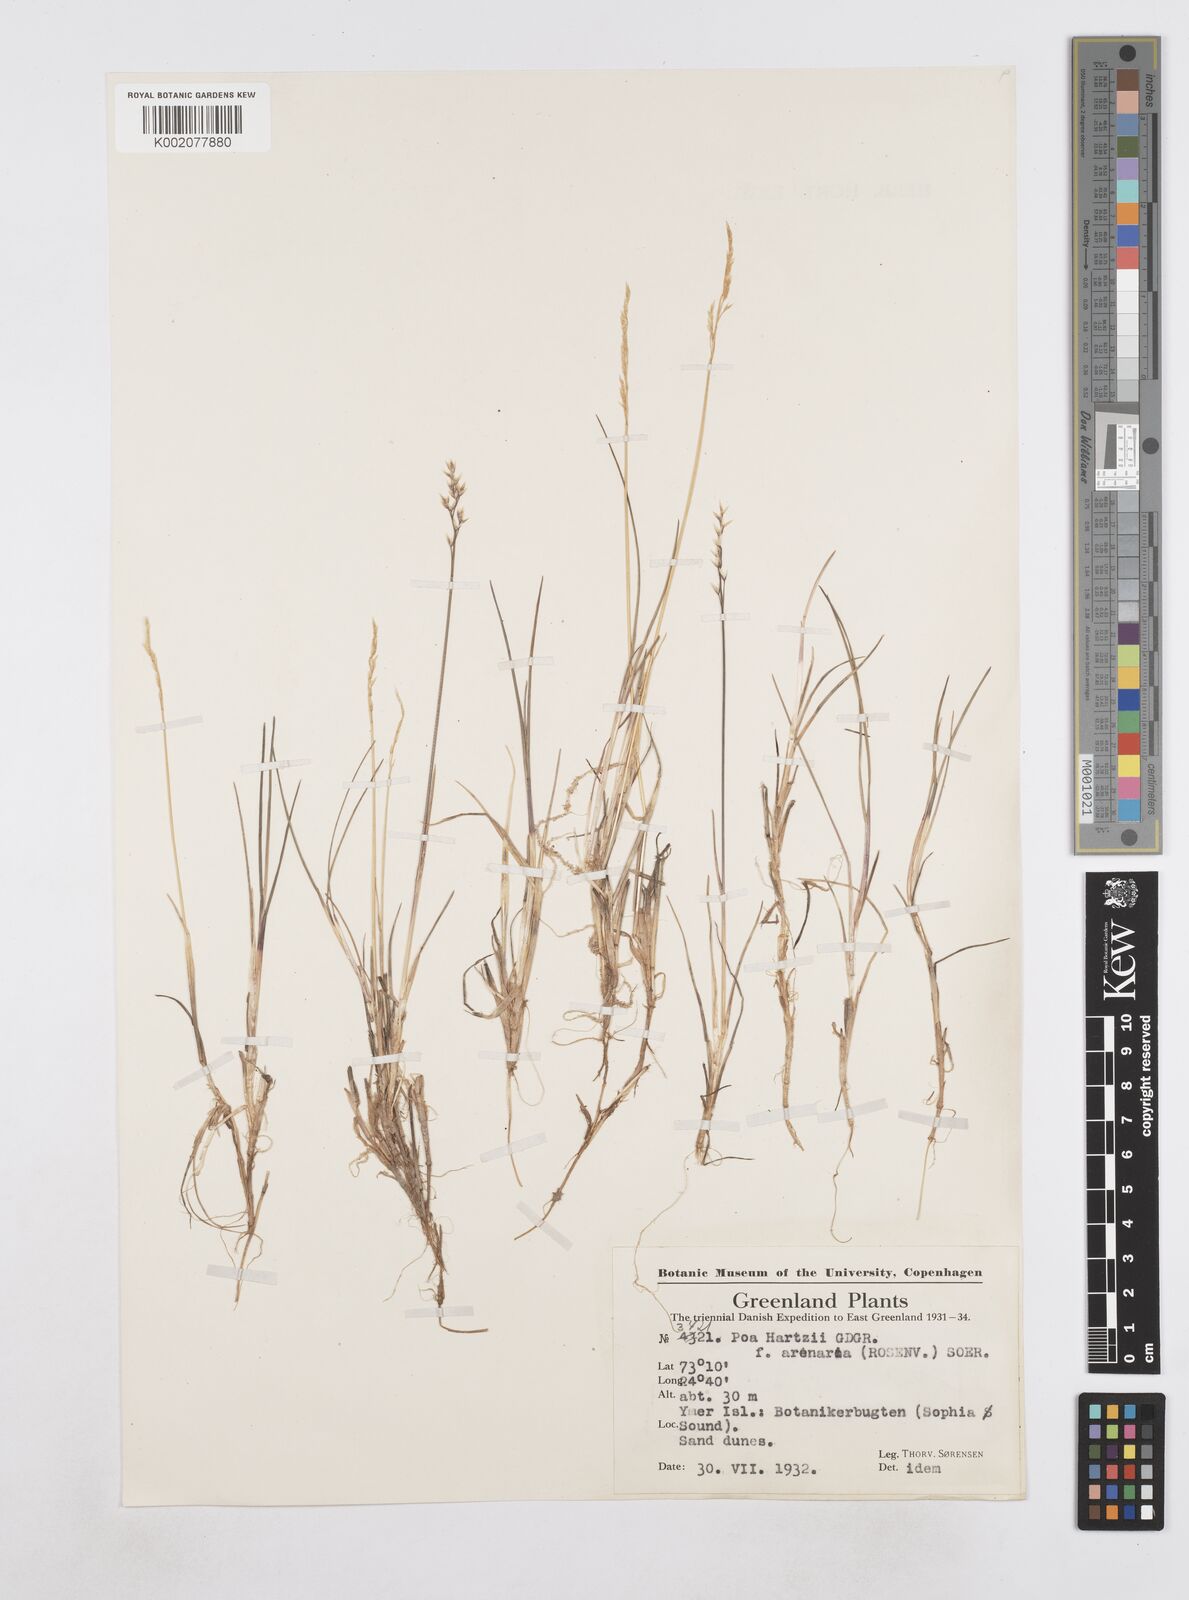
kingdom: Plantae
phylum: Tracheophyta
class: Liliopsida
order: Poales
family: Poaceae
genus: Poa
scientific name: Poa hartzii
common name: Hartz's bluegrass
